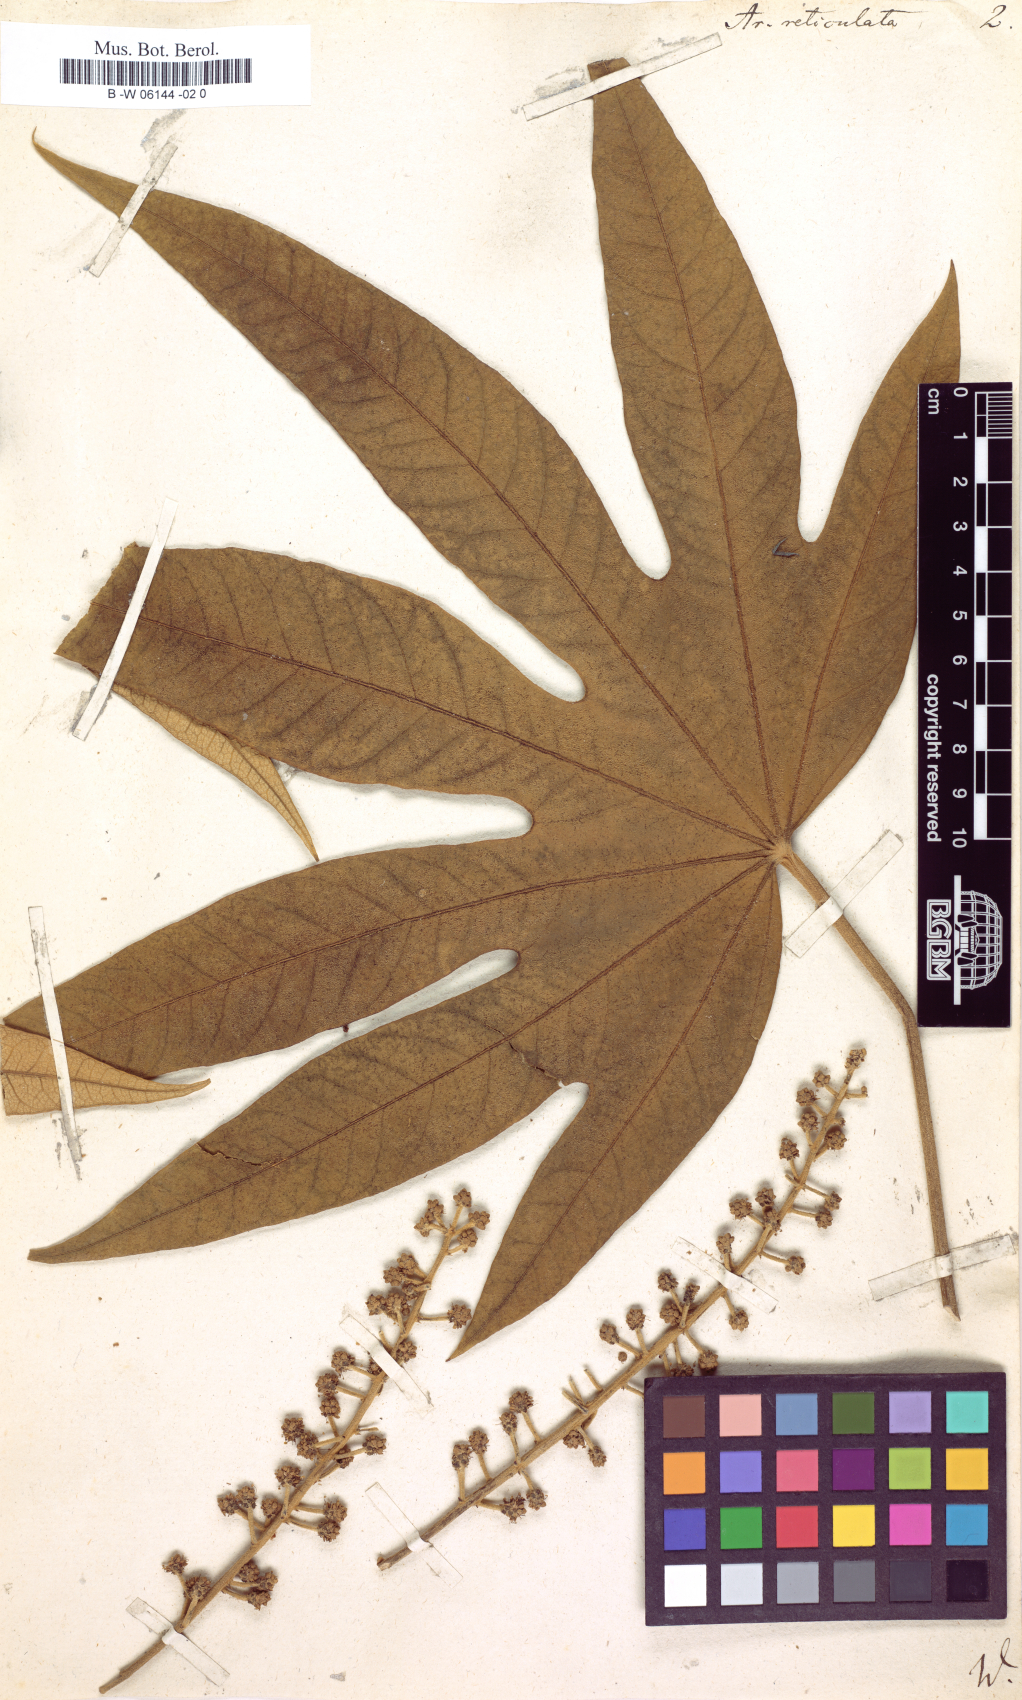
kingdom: Plantae
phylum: Tracheophyta
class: Magnoliopsida
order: Apiales
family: Araliaceae
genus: Oreopanax
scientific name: Oreopanax reticulatus
